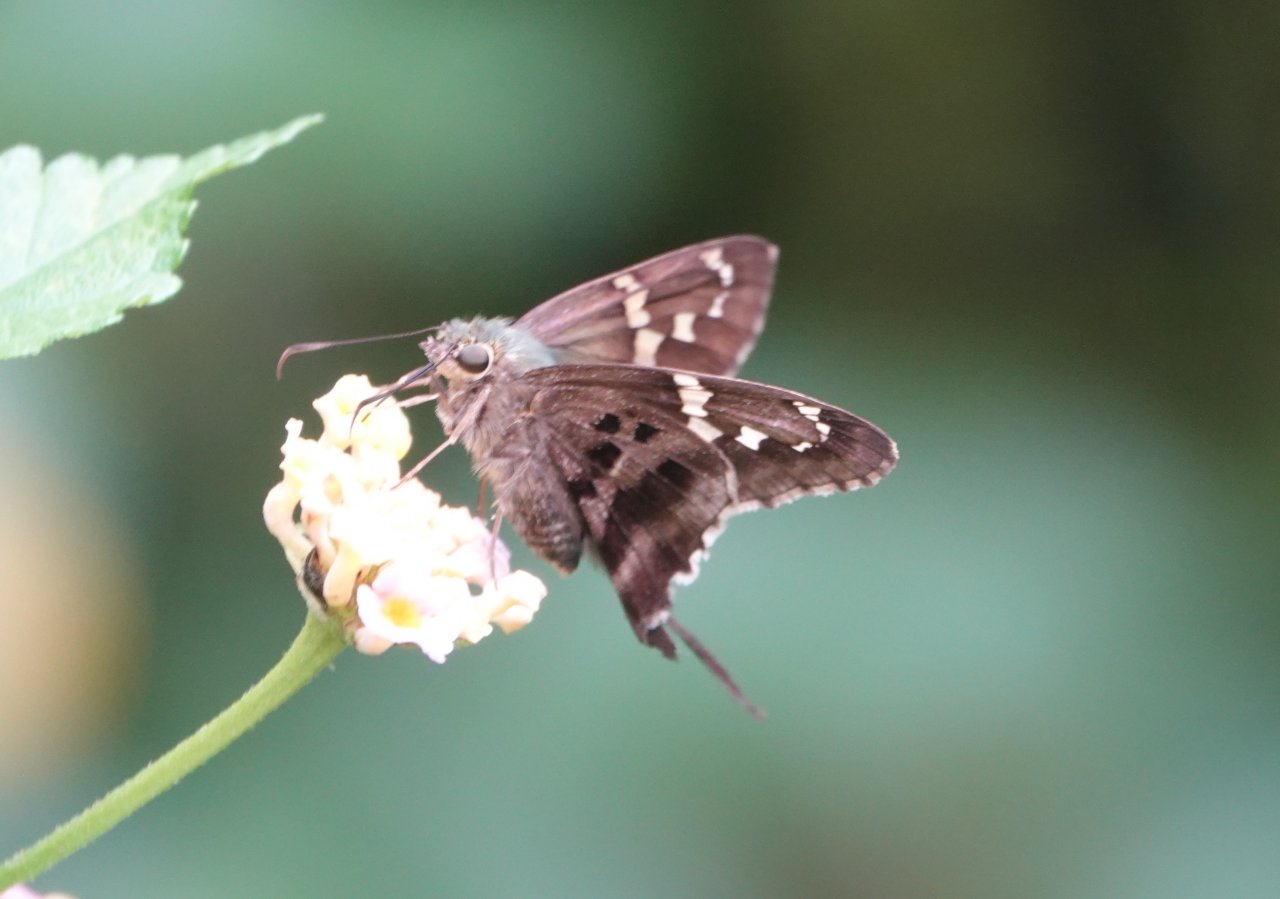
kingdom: Animalia
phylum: Arthropoda
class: Insecta
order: Lepidoptera
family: Hesperiidae
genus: Urbanus
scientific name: Urbanus proteus
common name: Long-tailed Skipper
